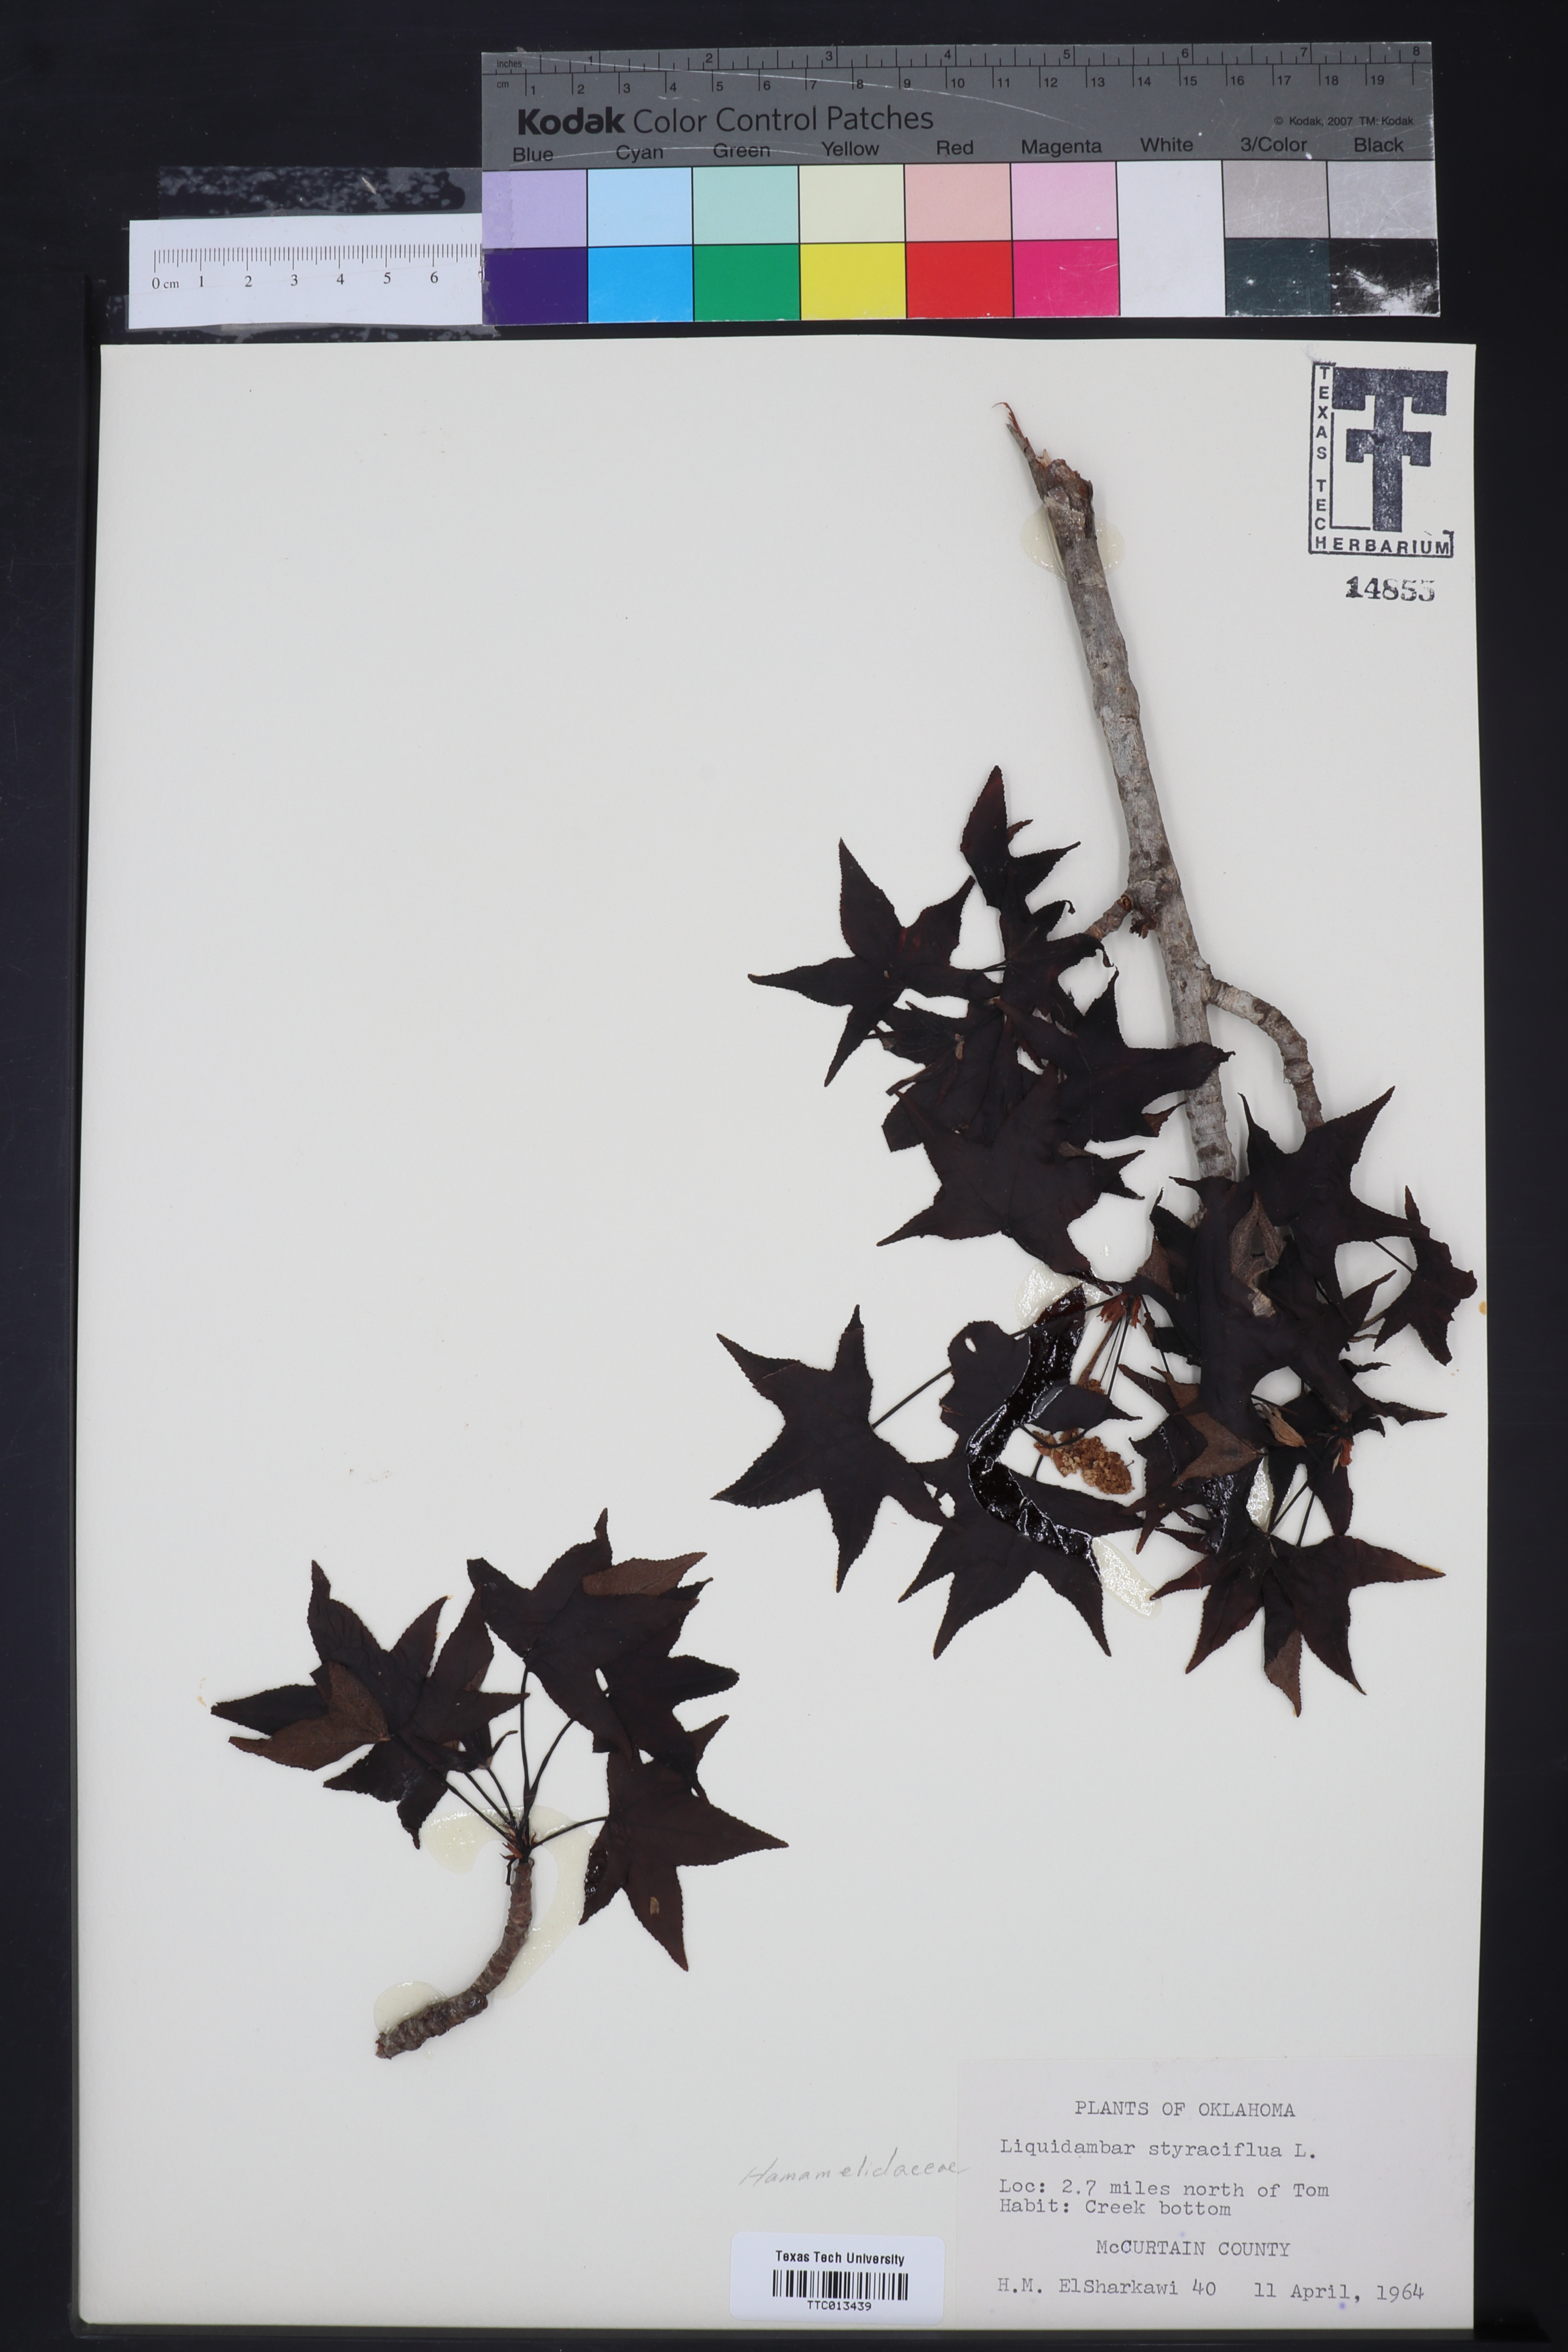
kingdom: Plantae
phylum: Tracheophyta
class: Magnoliopsida
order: Saxifragales
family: Altingiaceae
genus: Liquidambar
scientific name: Liquidambar styraciflua
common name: Sweet gum
